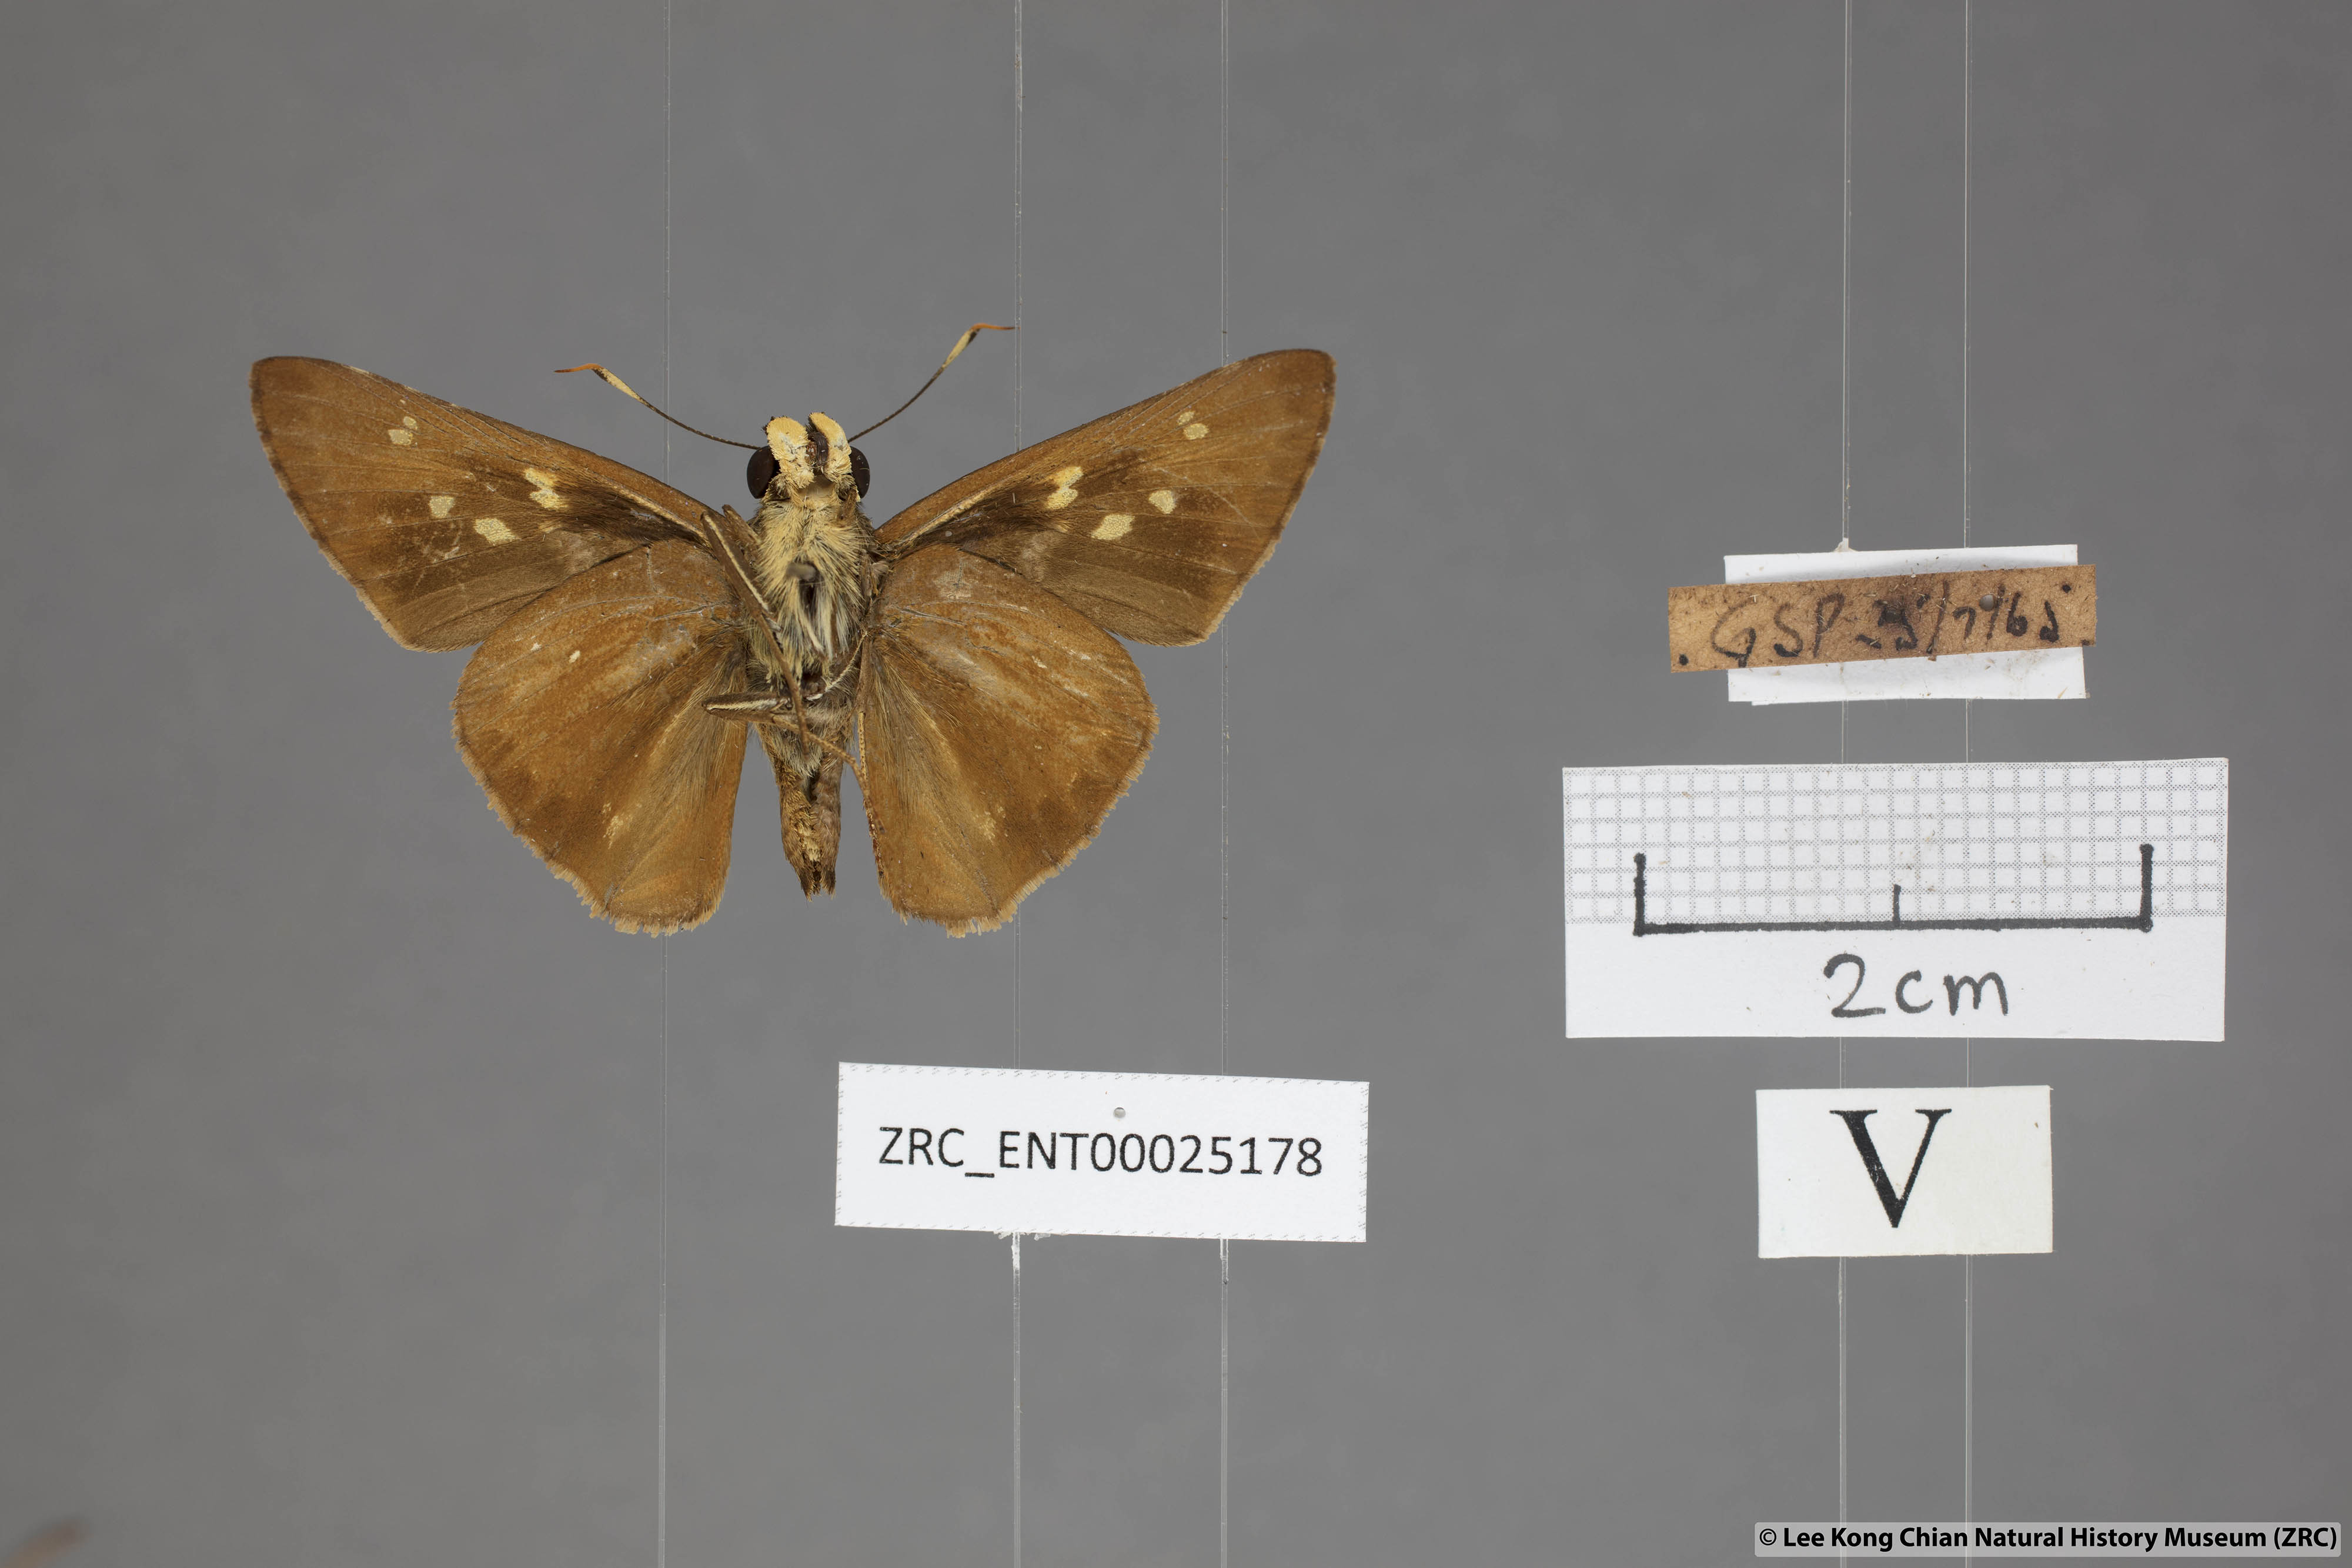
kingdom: Animalia
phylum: Arthropoda
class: Insecta
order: Lepidoptera
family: Hesperiidae
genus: Pithauria
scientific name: Pithauria marsena
